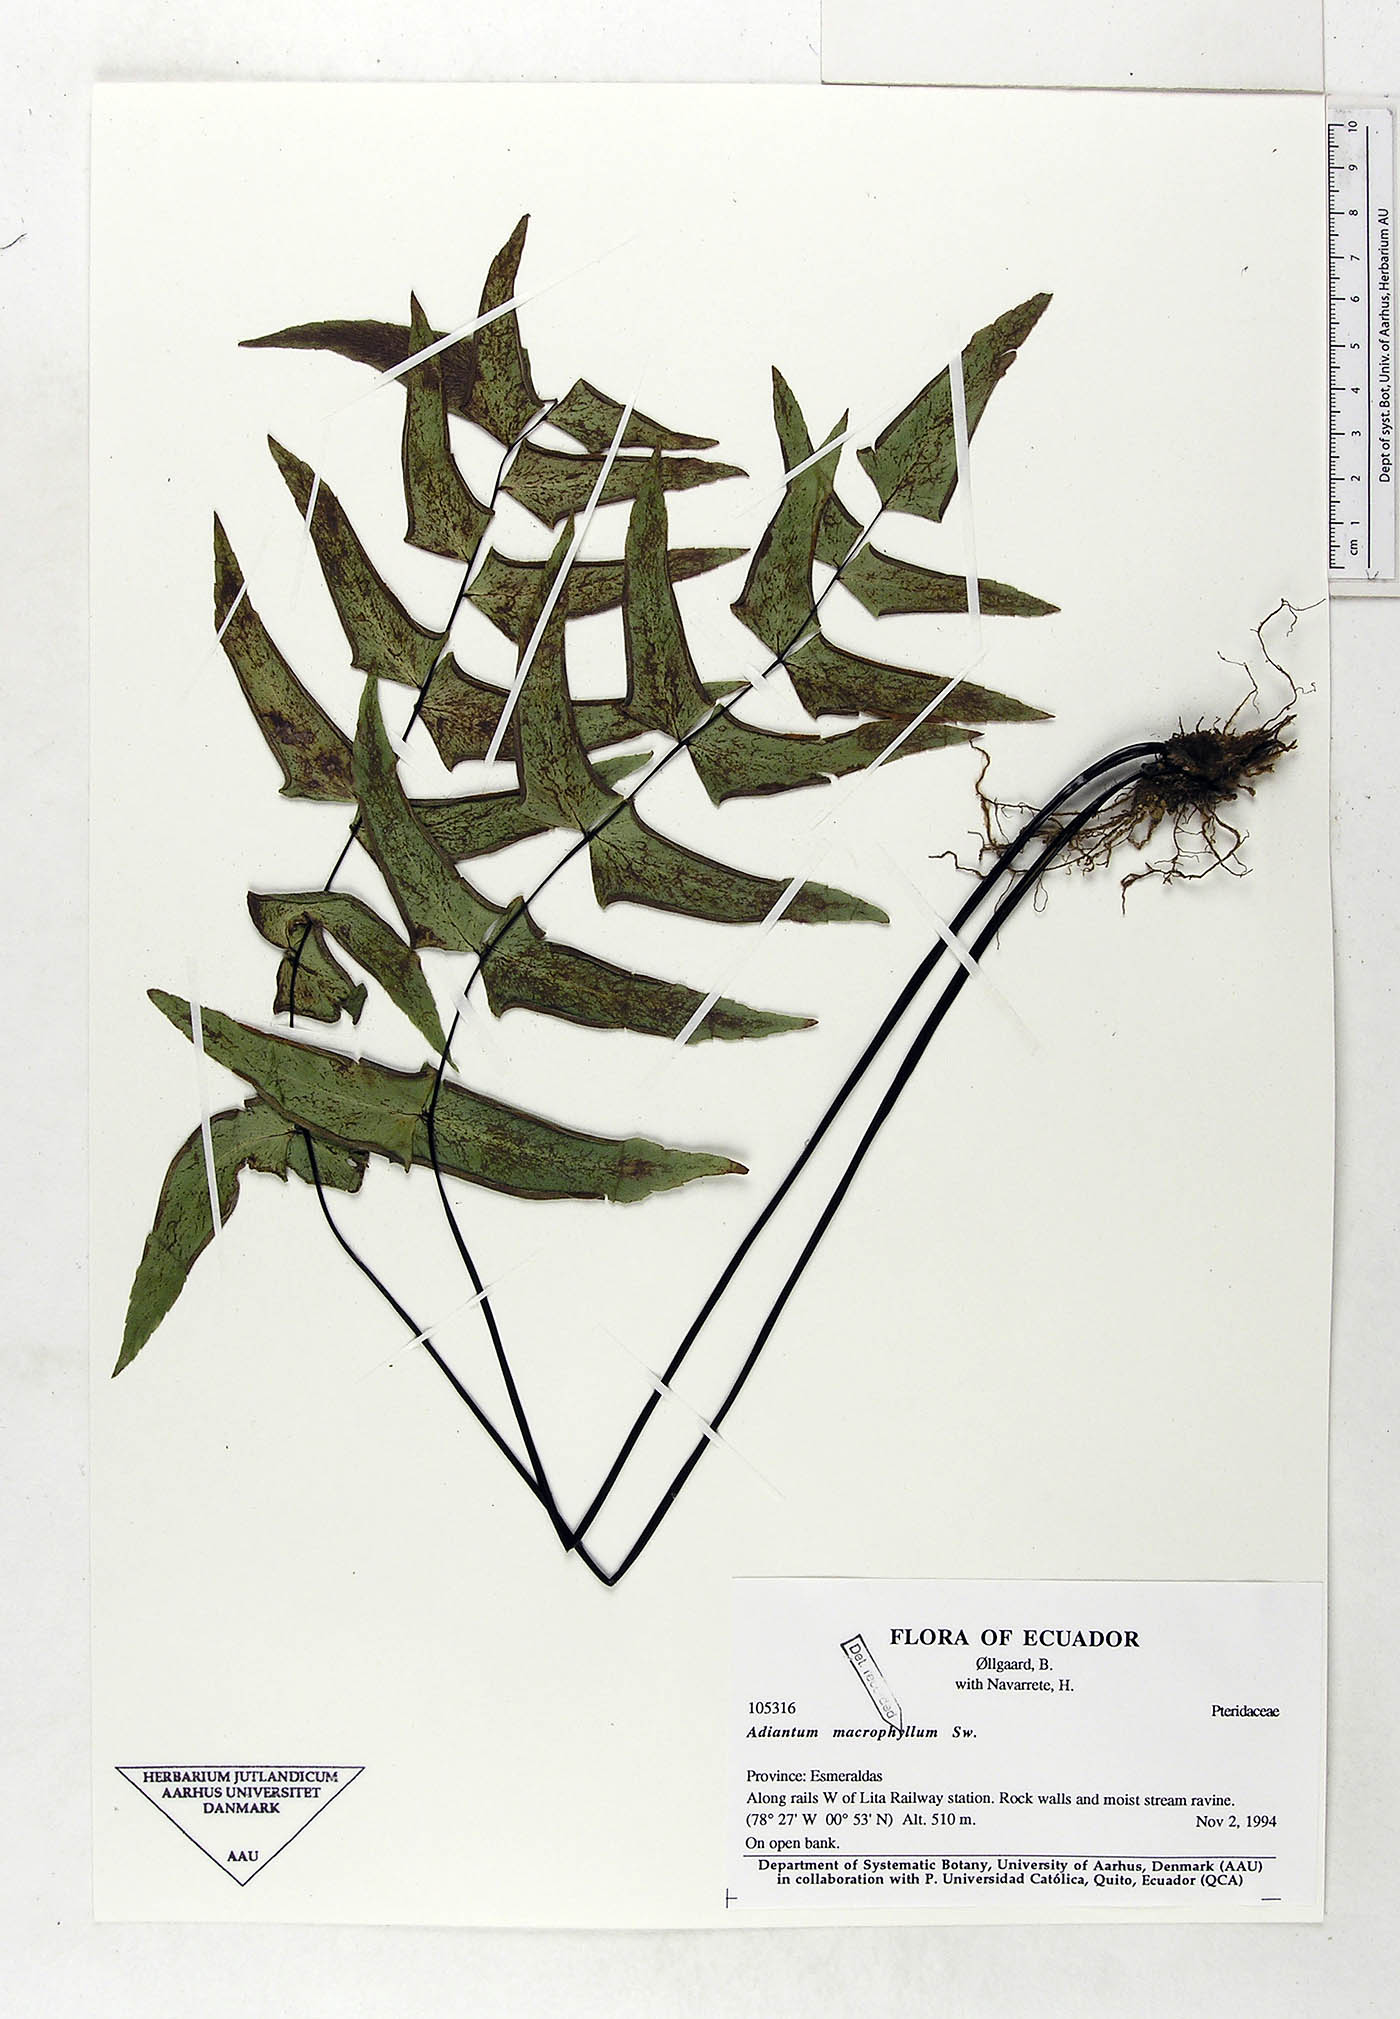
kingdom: Plantae
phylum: Tracheophyta
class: Polypodiopsida
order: Polypodiales
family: Pteridaceae
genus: Adiantum
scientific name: Adiantum macrophyllum
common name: Largeleaf maidenhair
